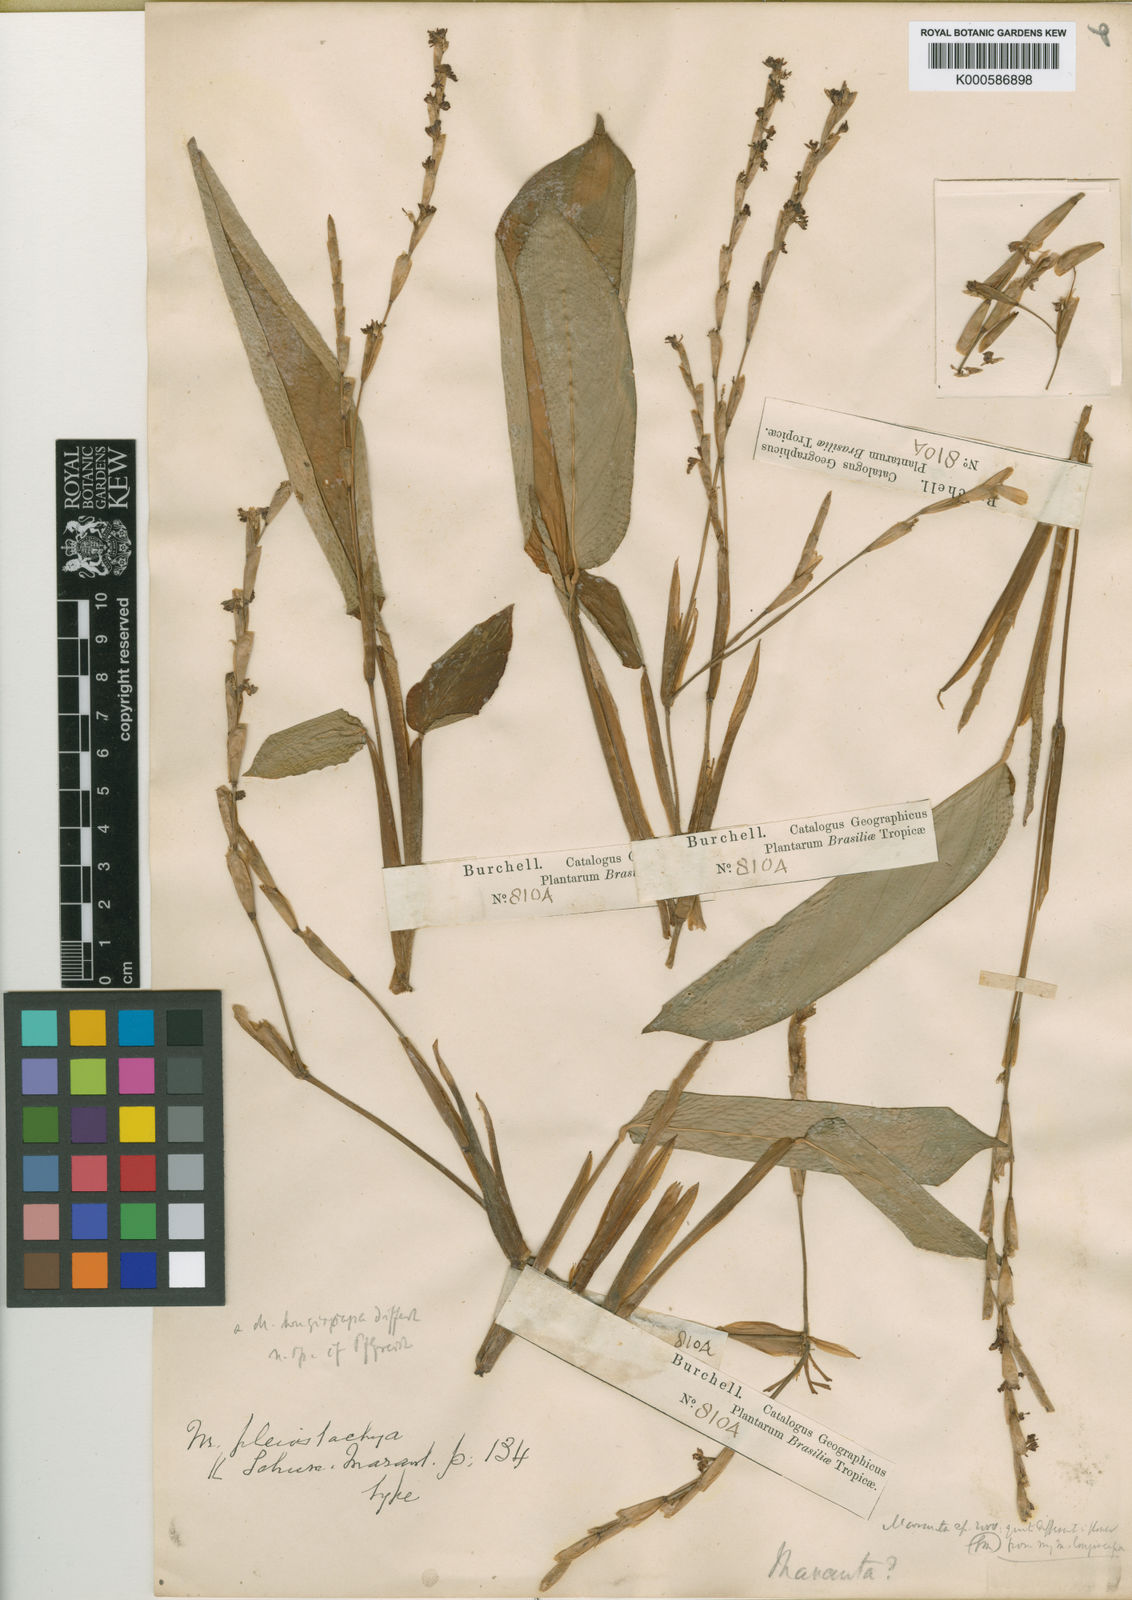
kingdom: Plantae
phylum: Tracheophyta
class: Liliopsida
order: Zingiberales
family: Marantaceae
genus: Maranta
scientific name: Maranta phrynioides
